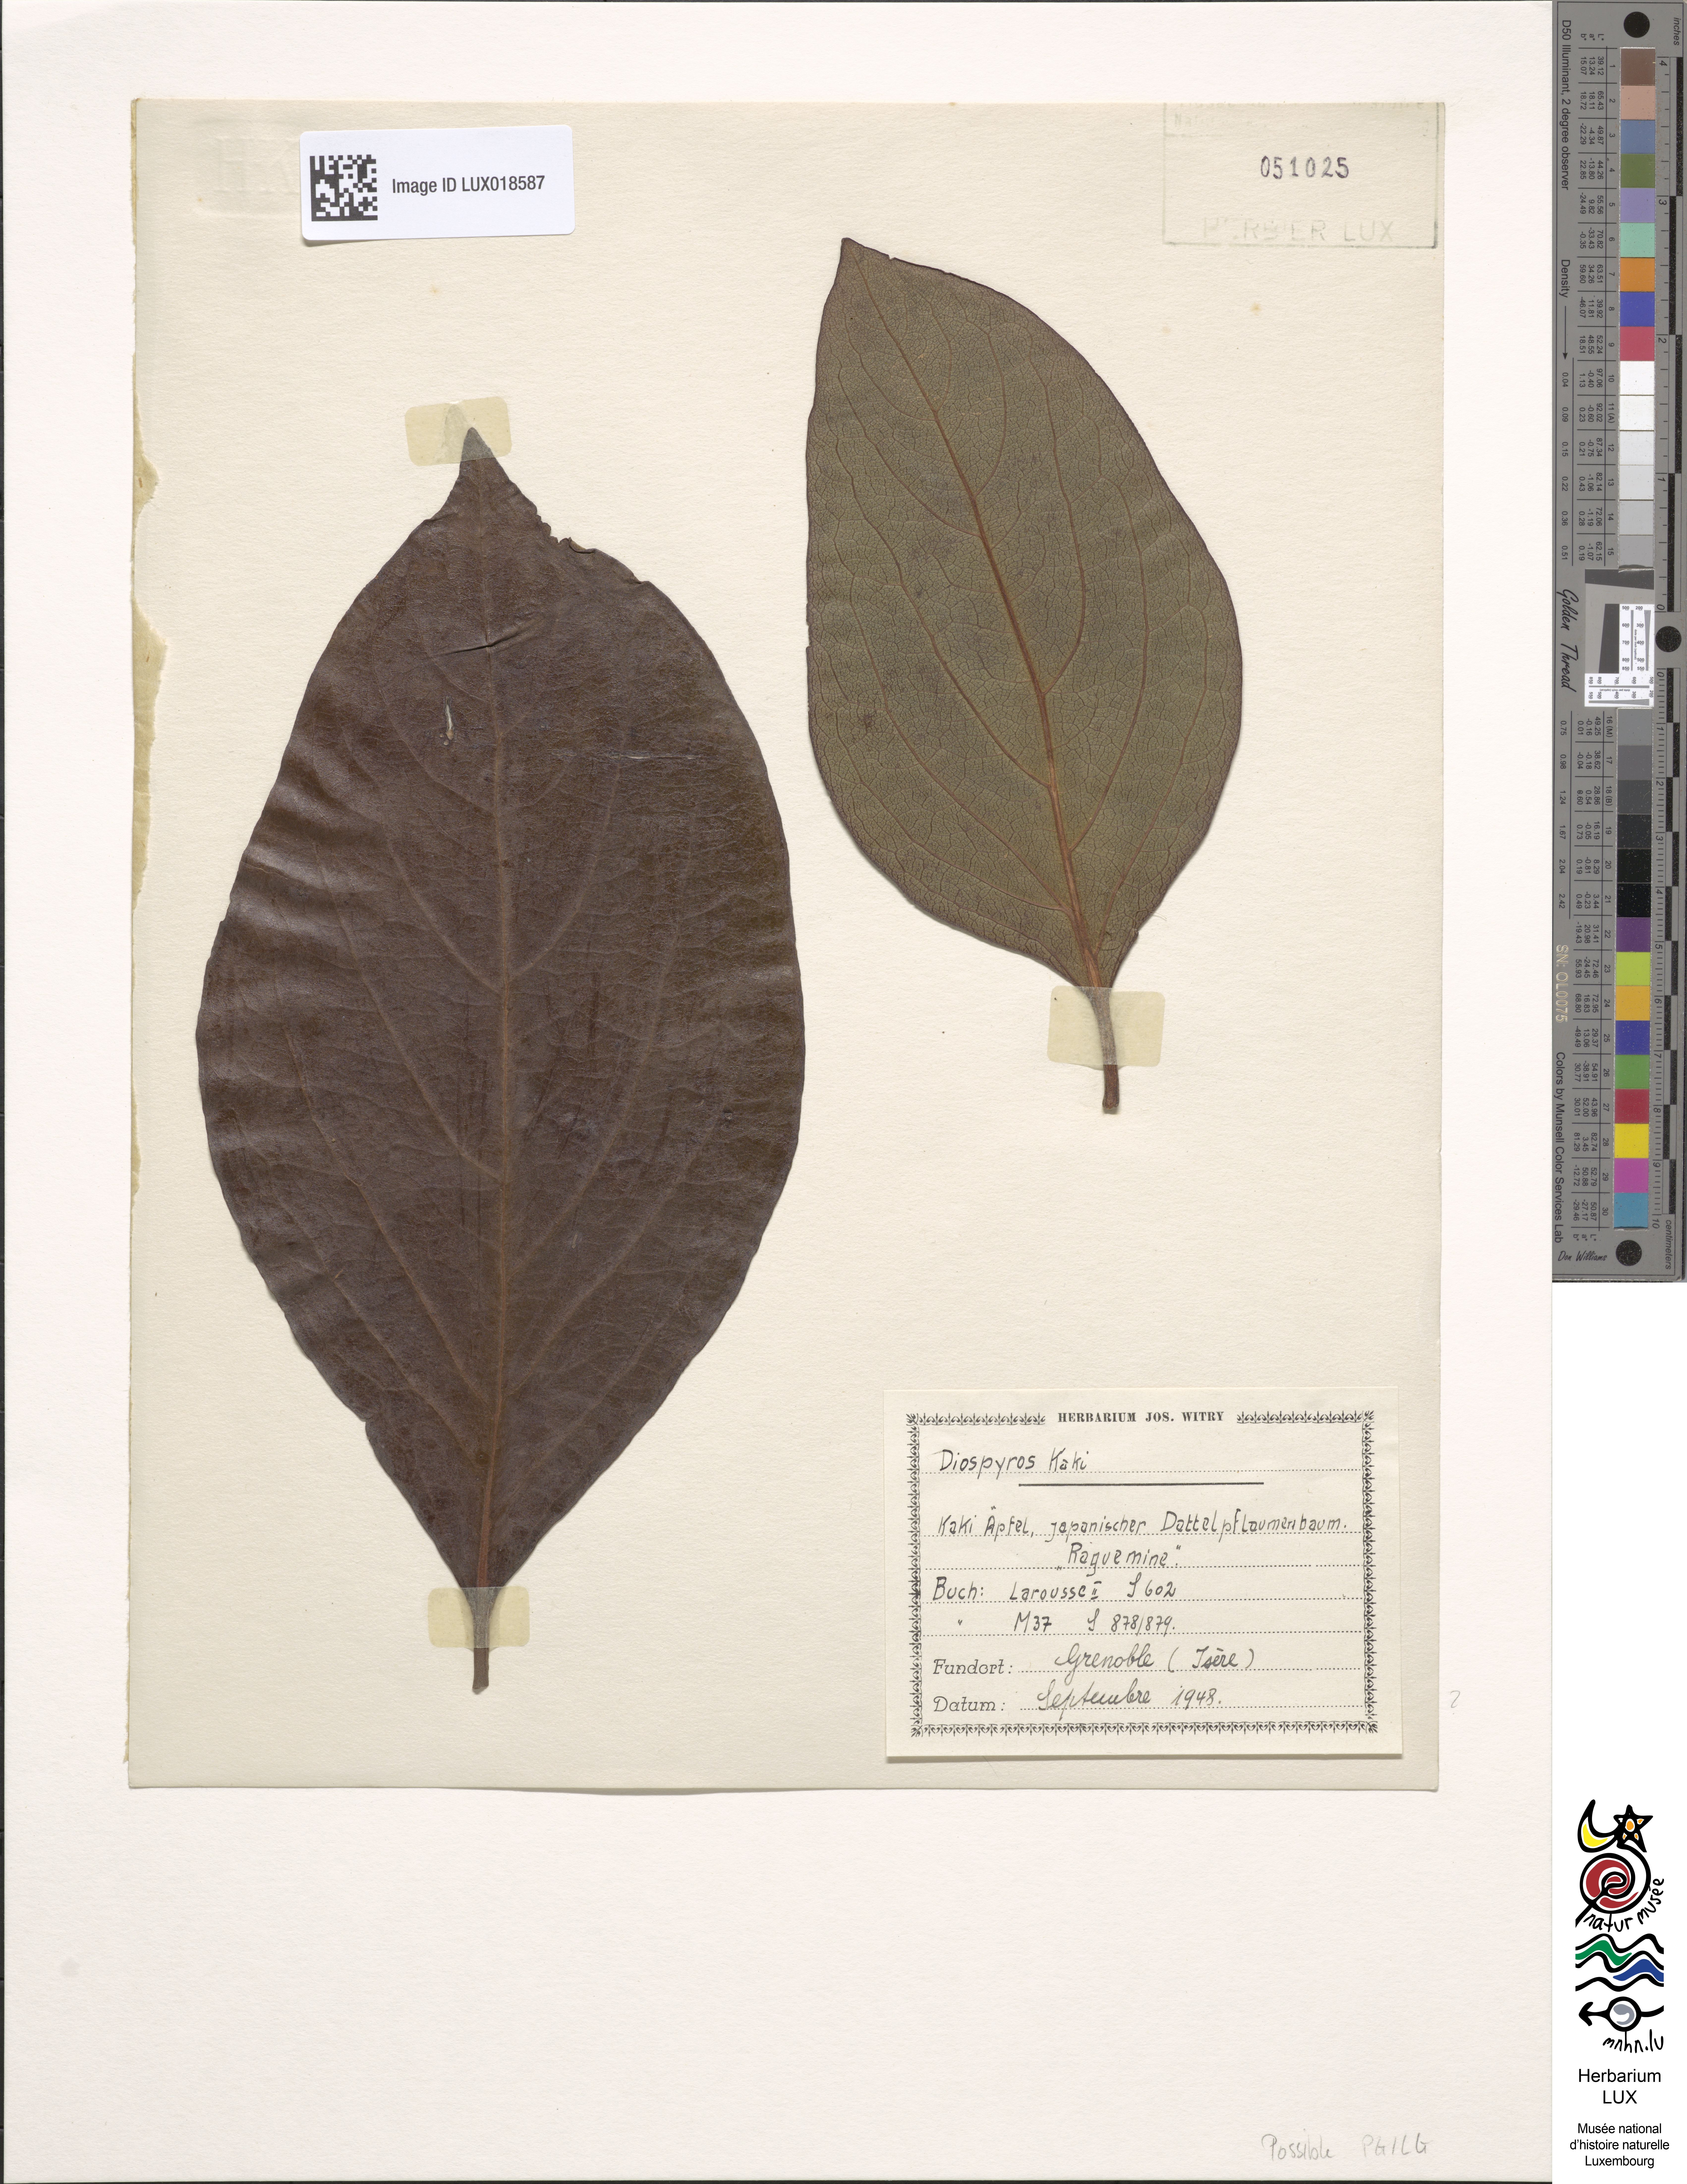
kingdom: Plantae
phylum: Tracheophyta
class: Magnoliopsida
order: Ericales
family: Ebenaceae
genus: Diospyros
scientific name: Diospyros kaki
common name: Persimmon
